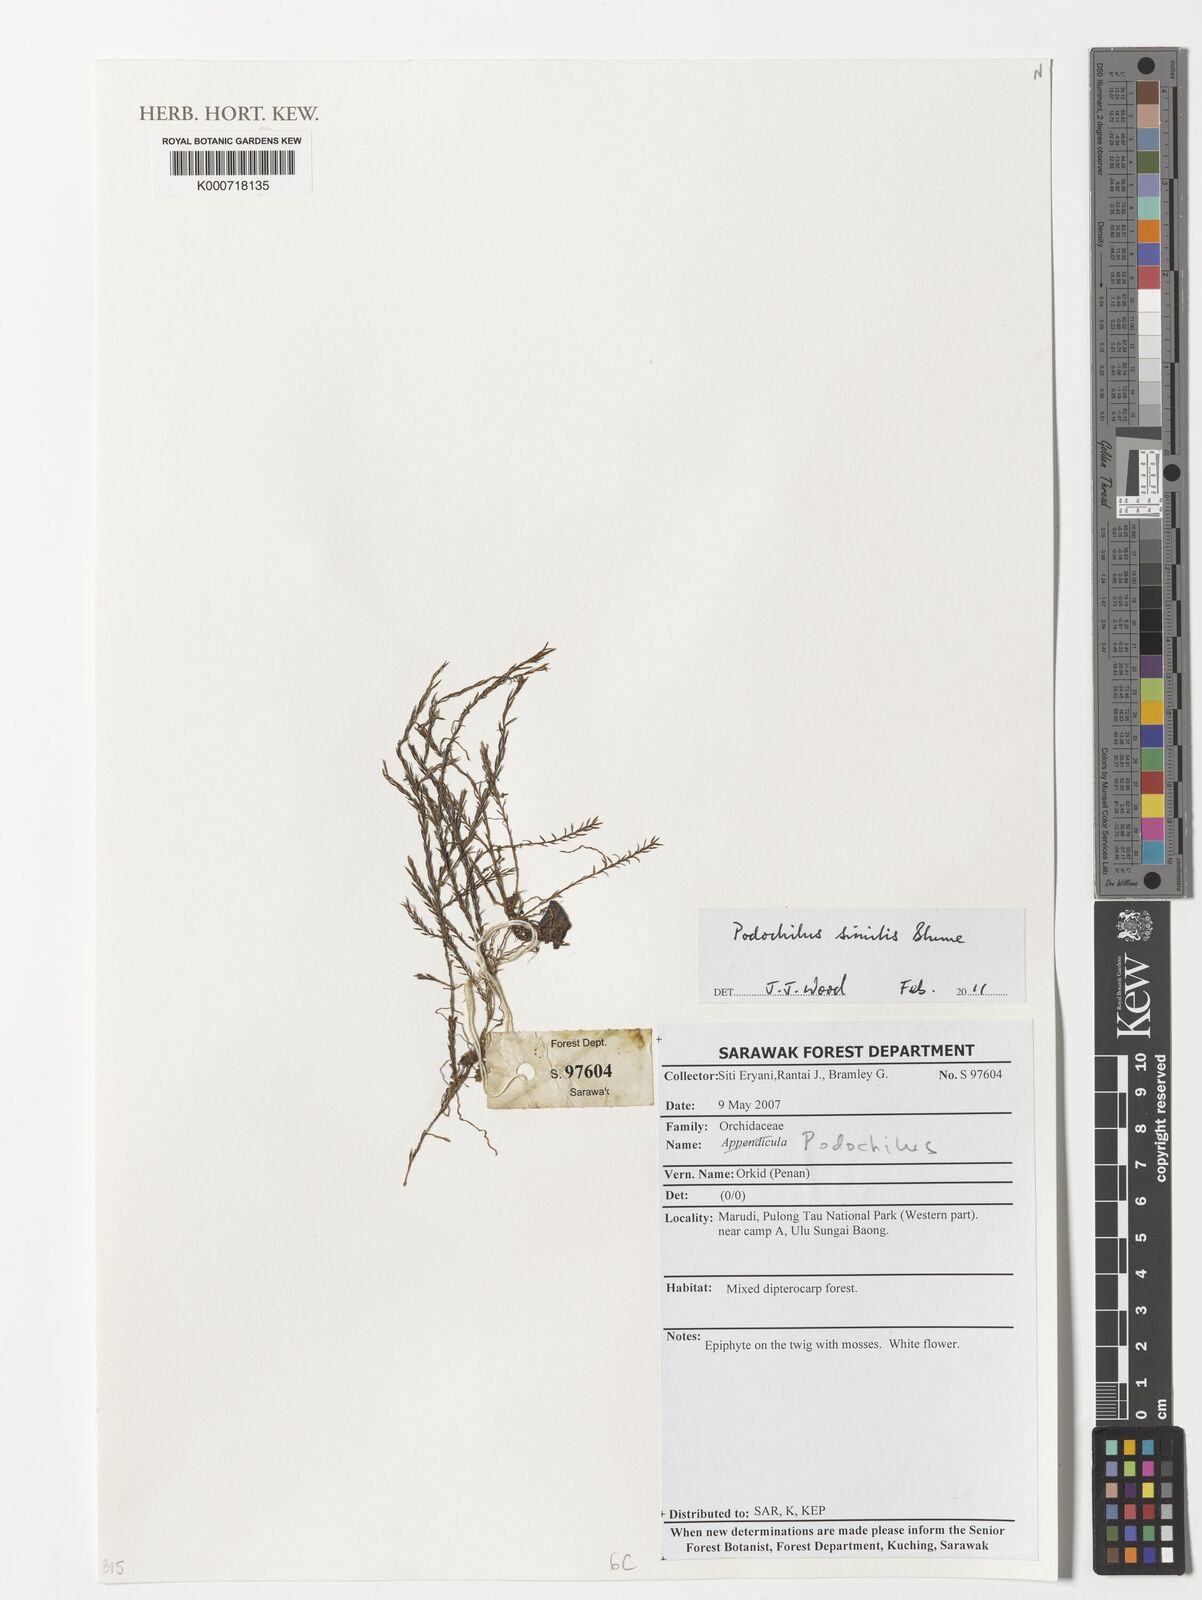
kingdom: Plantae
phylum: Tracheophyta
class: Liliopsida
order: Asparagales
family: Orchidaceae
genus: Podochilus
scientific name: Podochilus similis
